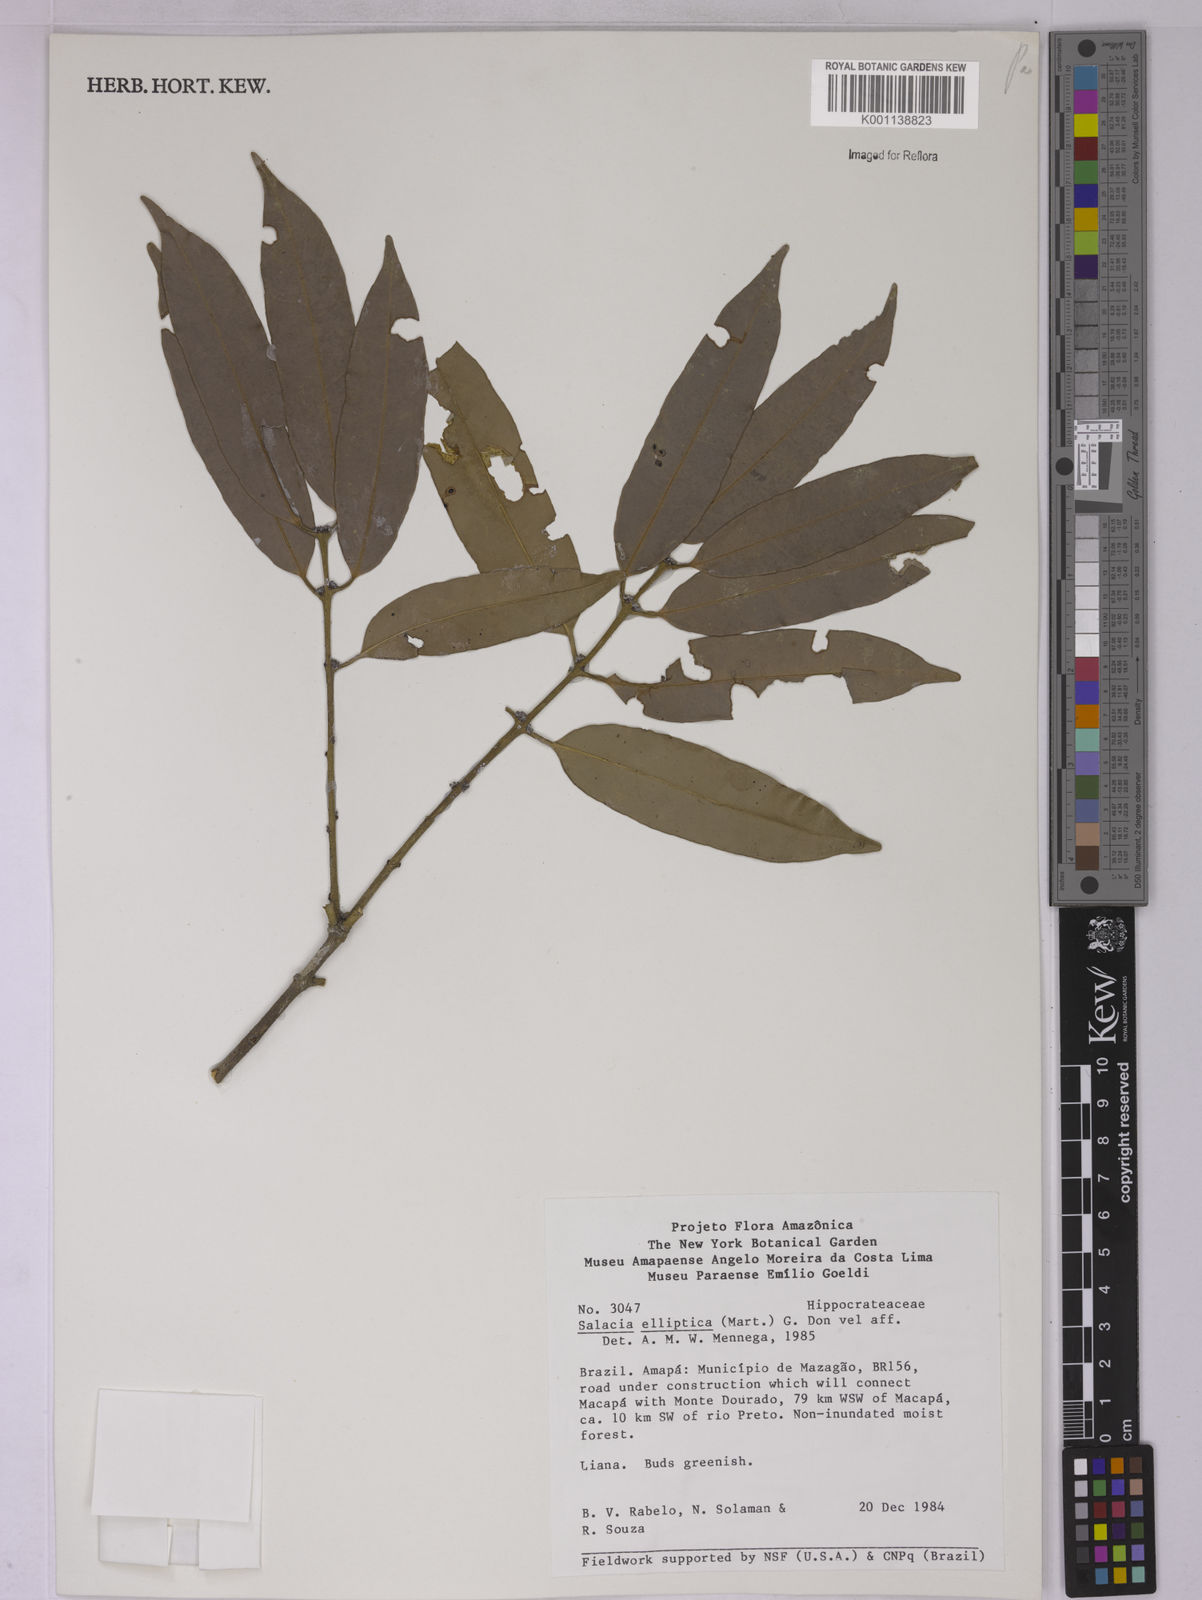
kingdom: Plantae
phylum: Tracheophyta
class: Magnoliopsida
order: Celastrales
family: Celastraceae
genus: Salacia
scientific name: Salacia elliptica
